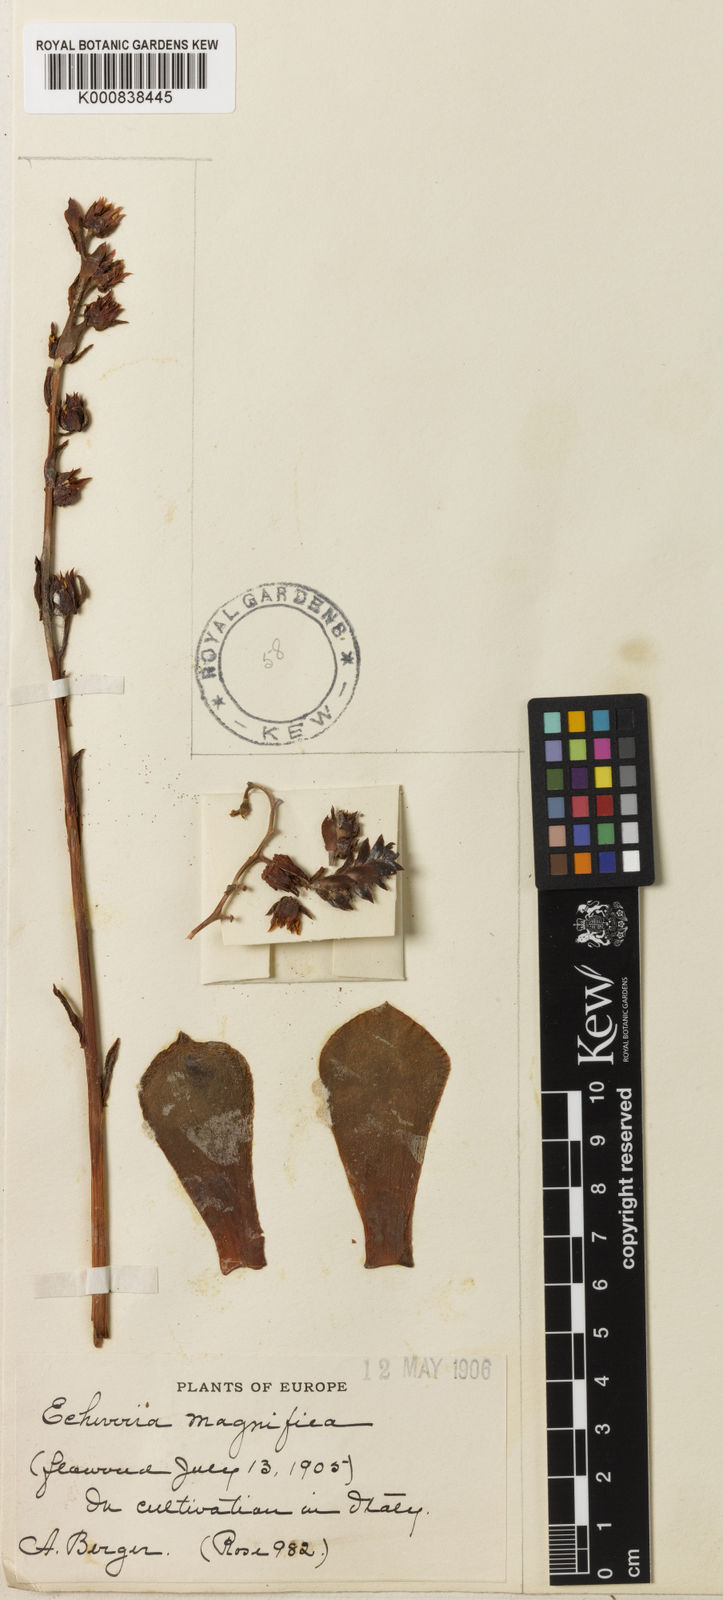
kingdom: Plantae
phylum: Tracheophyta
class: Magnoliopsida
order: Saxifragales
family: Crassulaceae
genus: Echeveria
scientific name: Echeveria
